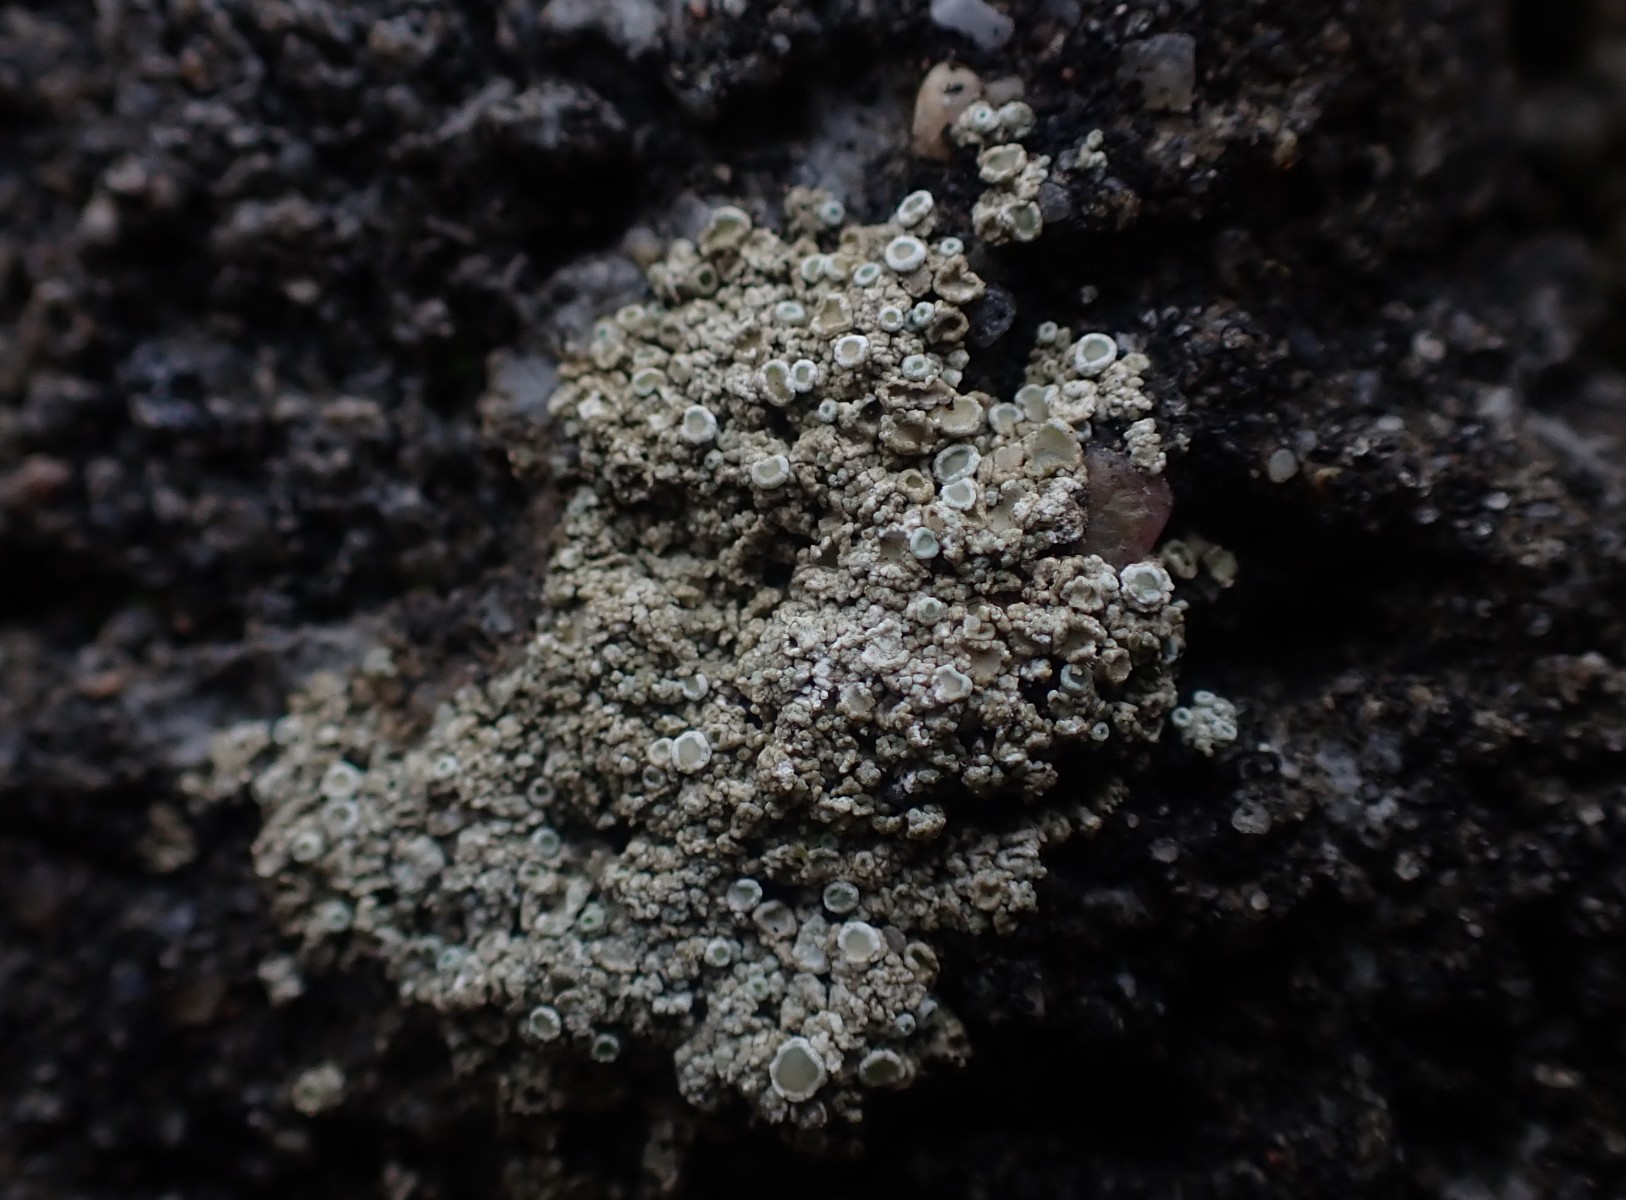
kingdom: Fungi
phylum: Ascomycota
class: Lecanoromycetes
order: Lecanorales
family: Lecanoraceae
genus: Polyozosia
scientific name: Polyozosia albescens
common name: cement-kantskivelav
